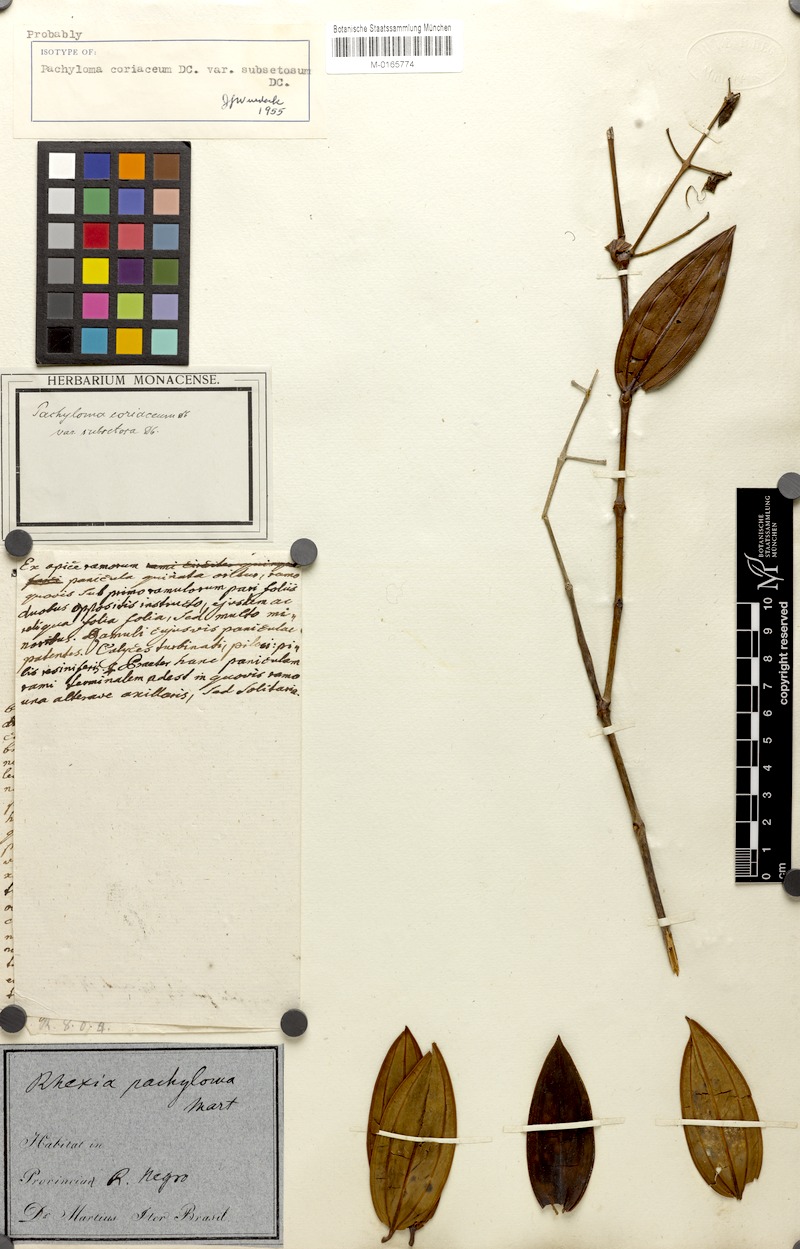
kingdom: Plantae
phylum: Tracheophyta
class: Magnoliopsida
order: Myrtales
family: Melastomataceae
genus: Pachyloma
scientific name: Pachyloma coriaceum
